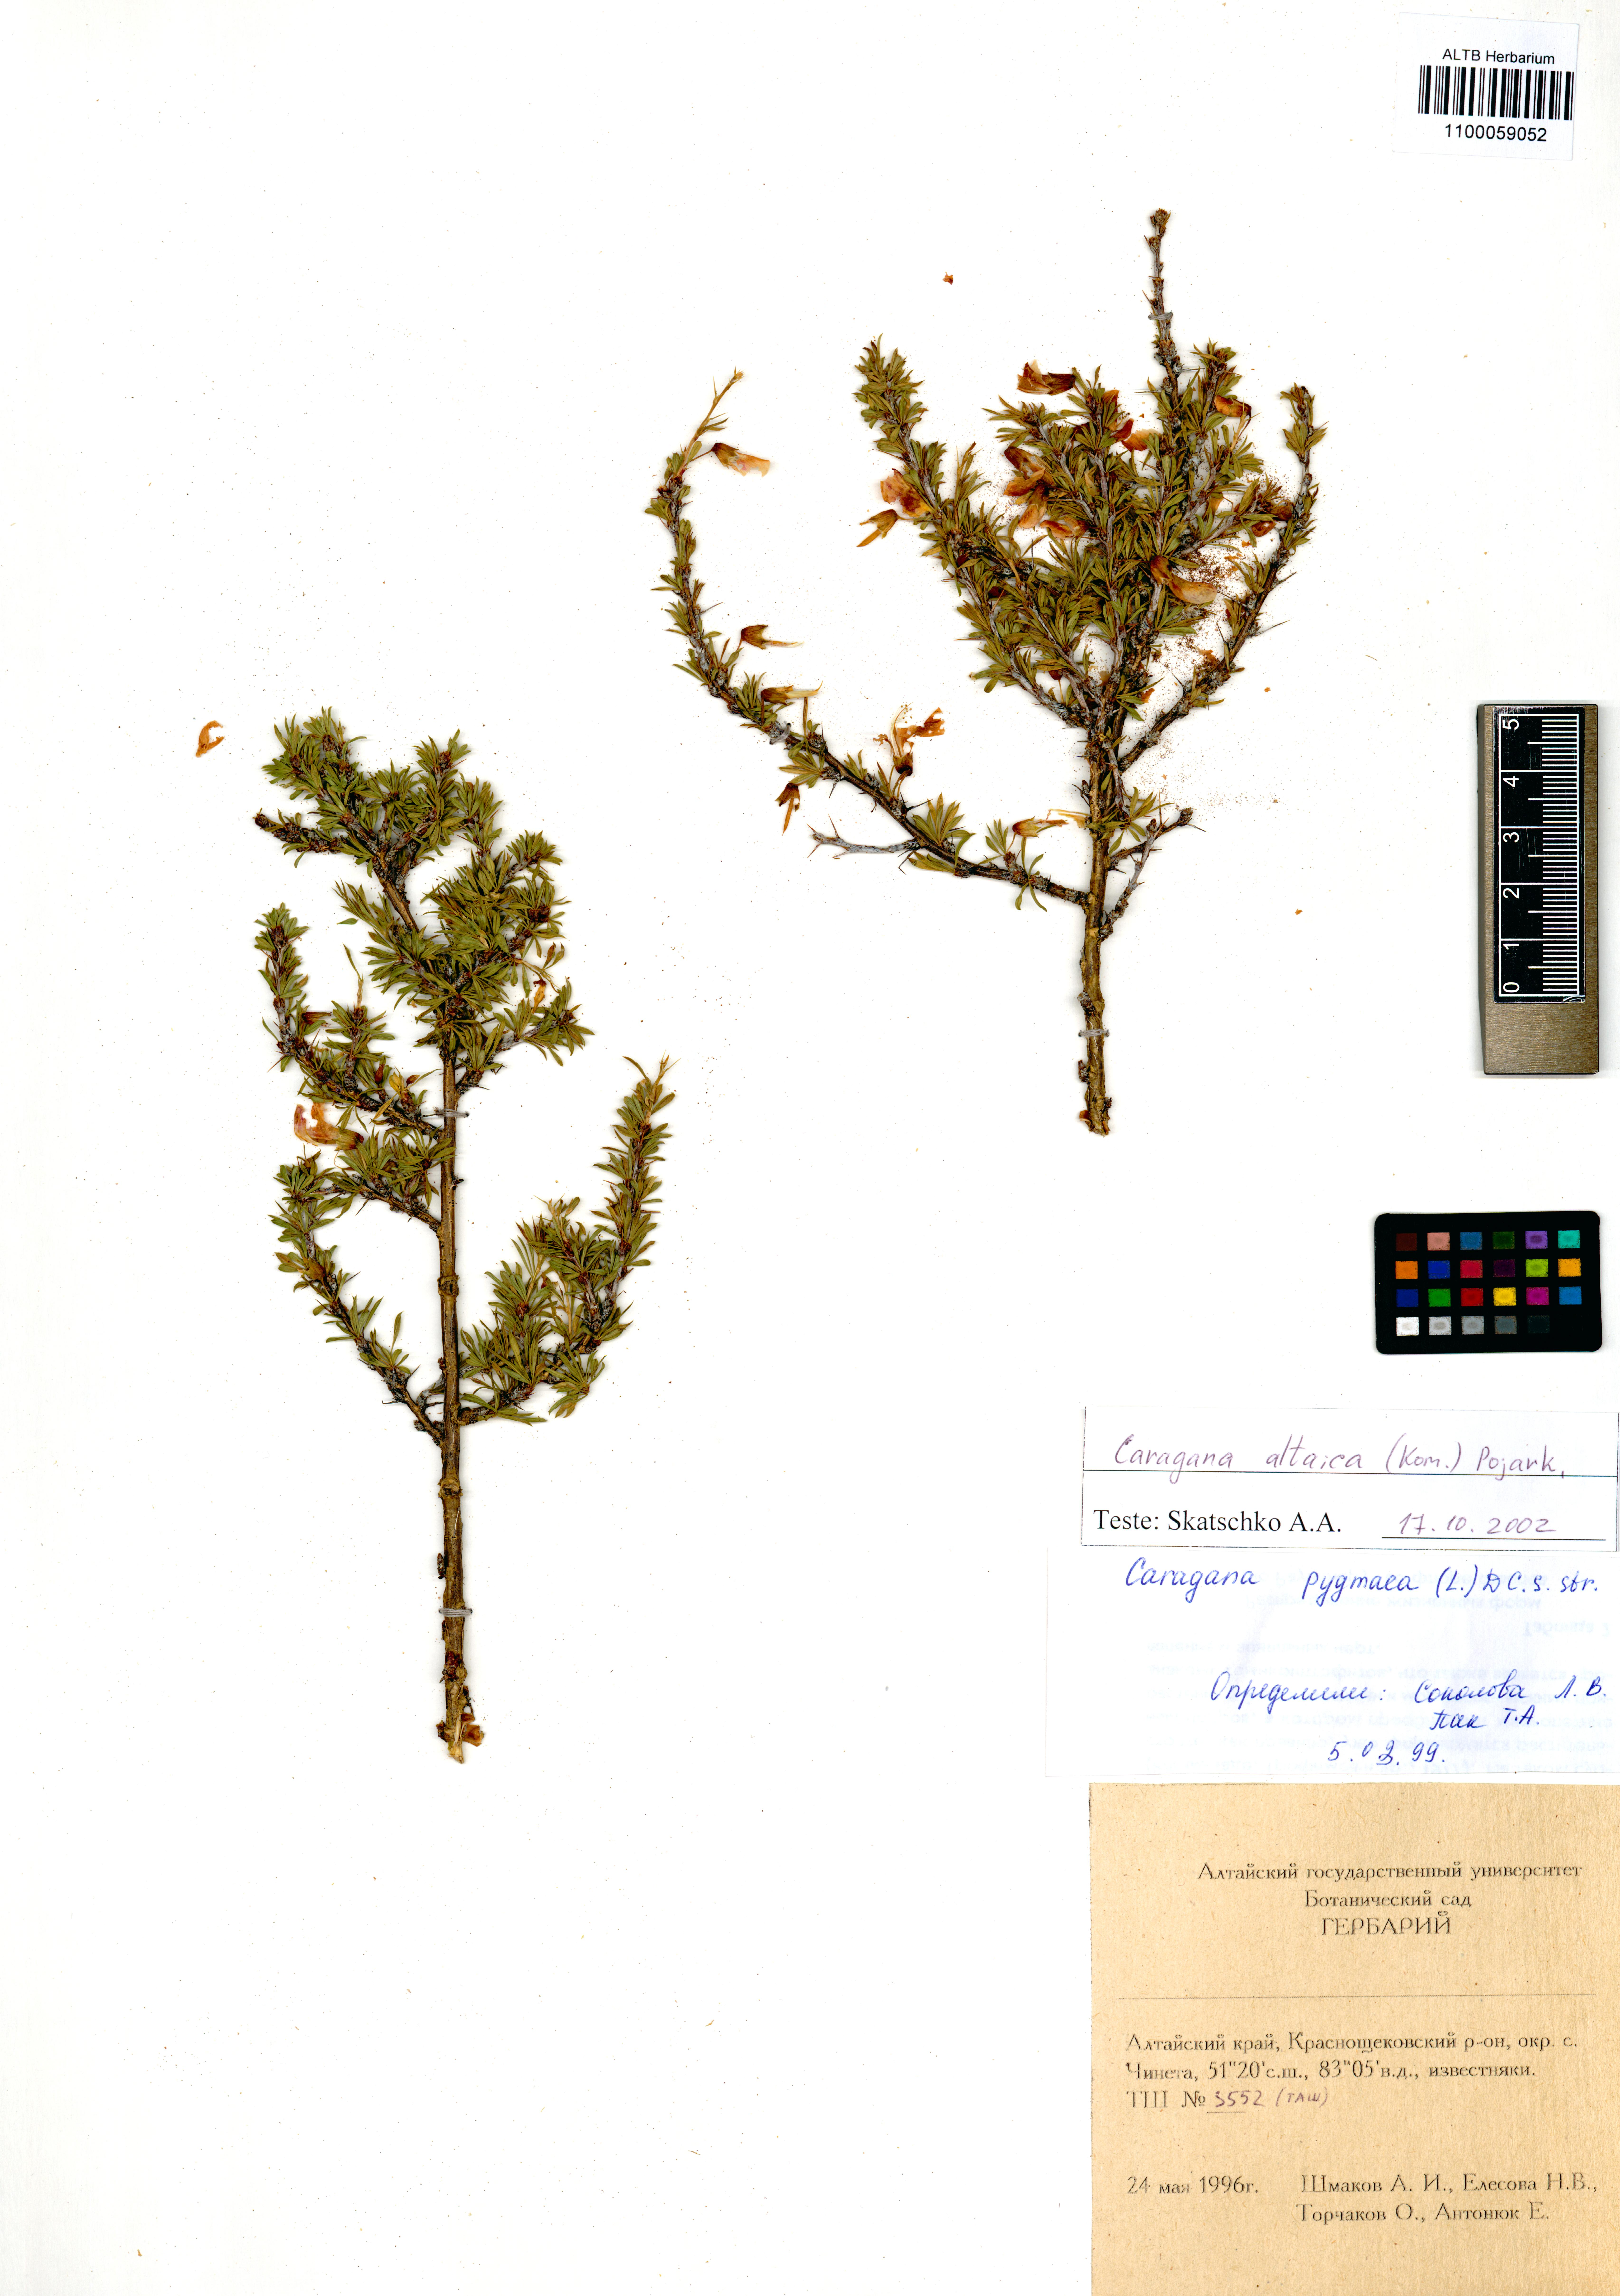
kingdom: Plantae
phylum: Tracheophyta
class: Magnoliopsida
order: Fabales
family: Fabaceae
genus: Caragana
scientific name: Caragana pygmaea
